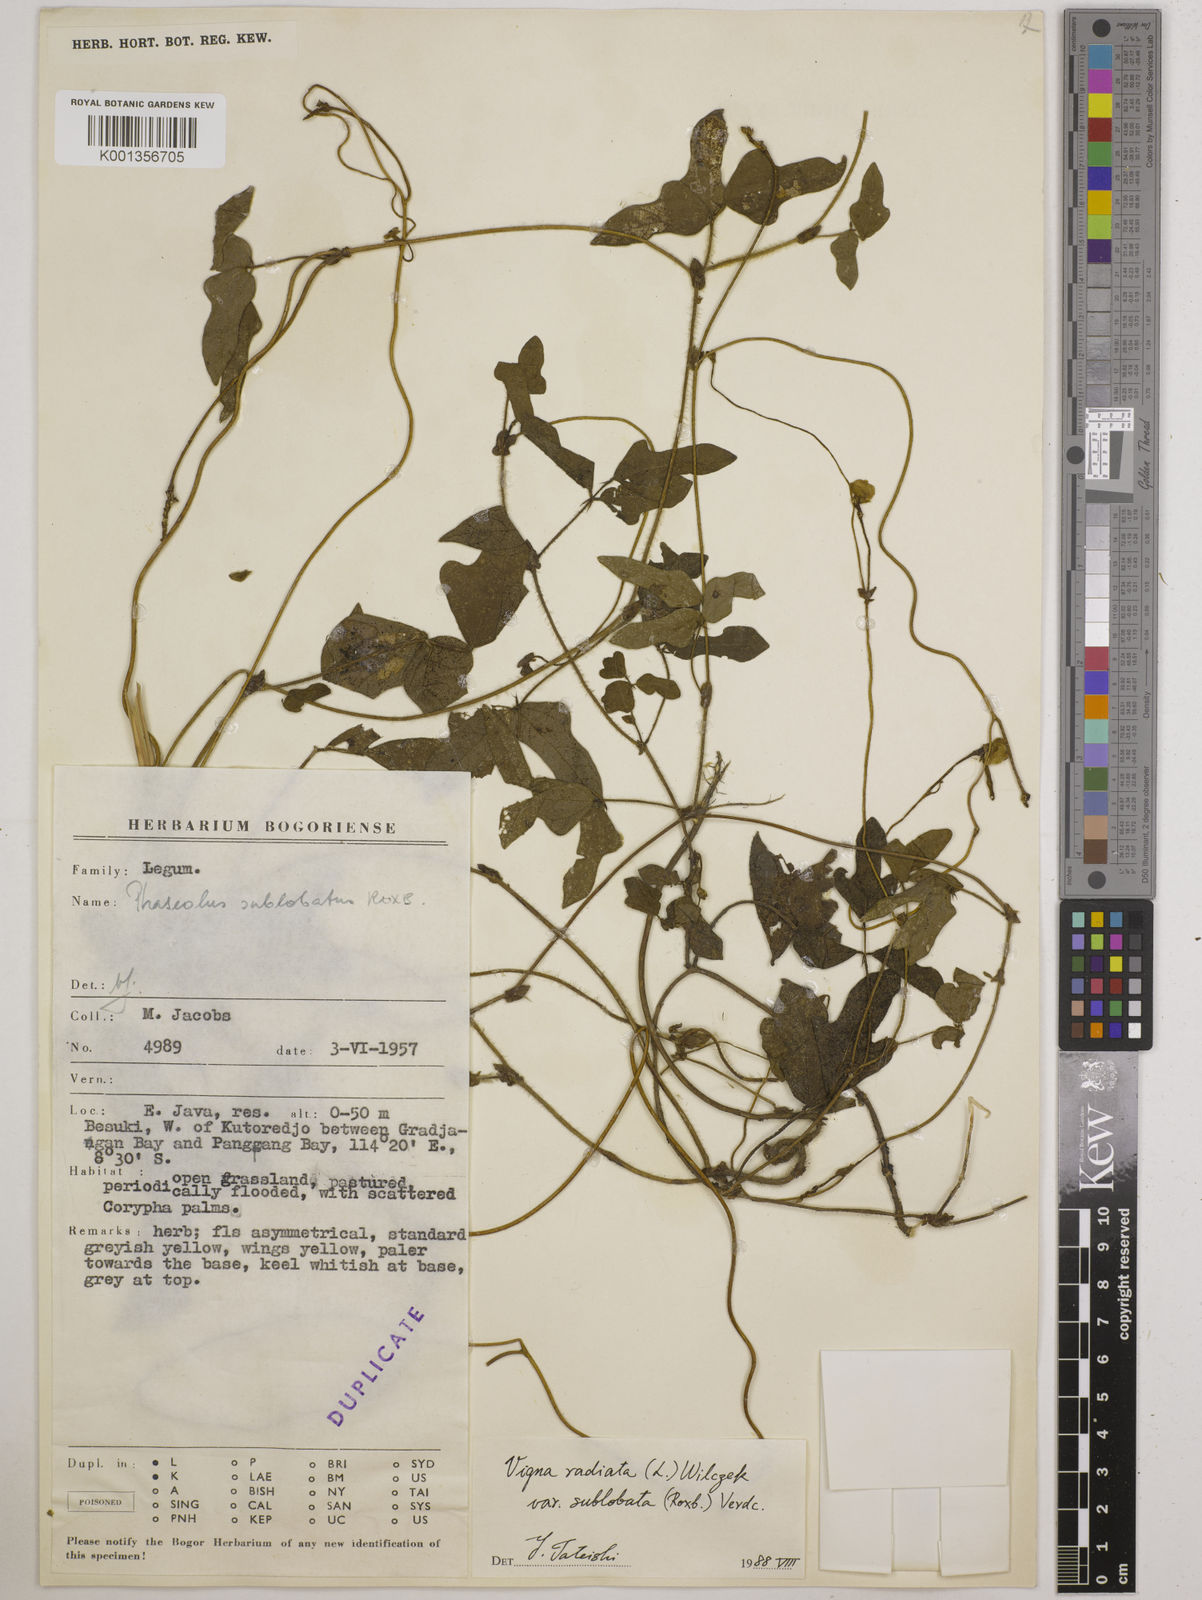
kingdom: Plantae
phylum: Tracheophyta
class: Magnoliopsida
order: Fabales
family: Fabaceae
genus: Vigna
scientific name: Vigna radiata
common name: Mung-bean
